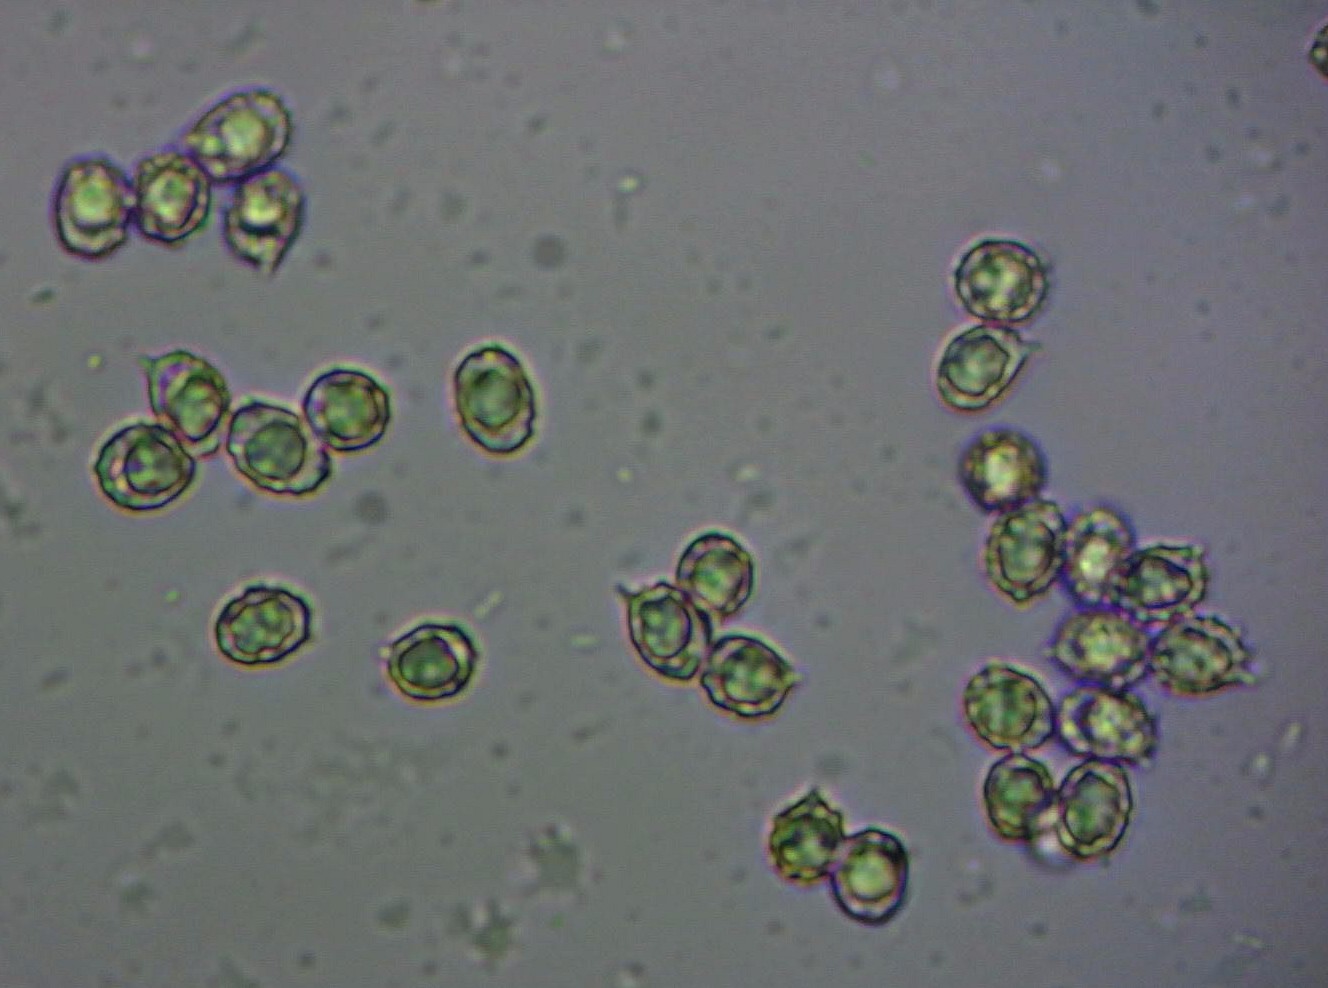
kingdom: Fungi
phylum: Basidiomycota
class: Agaricomycetes
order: Russulales
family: Russulaceae
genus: Russula
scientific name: Russula versicolor
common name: foranderlig skørhat
